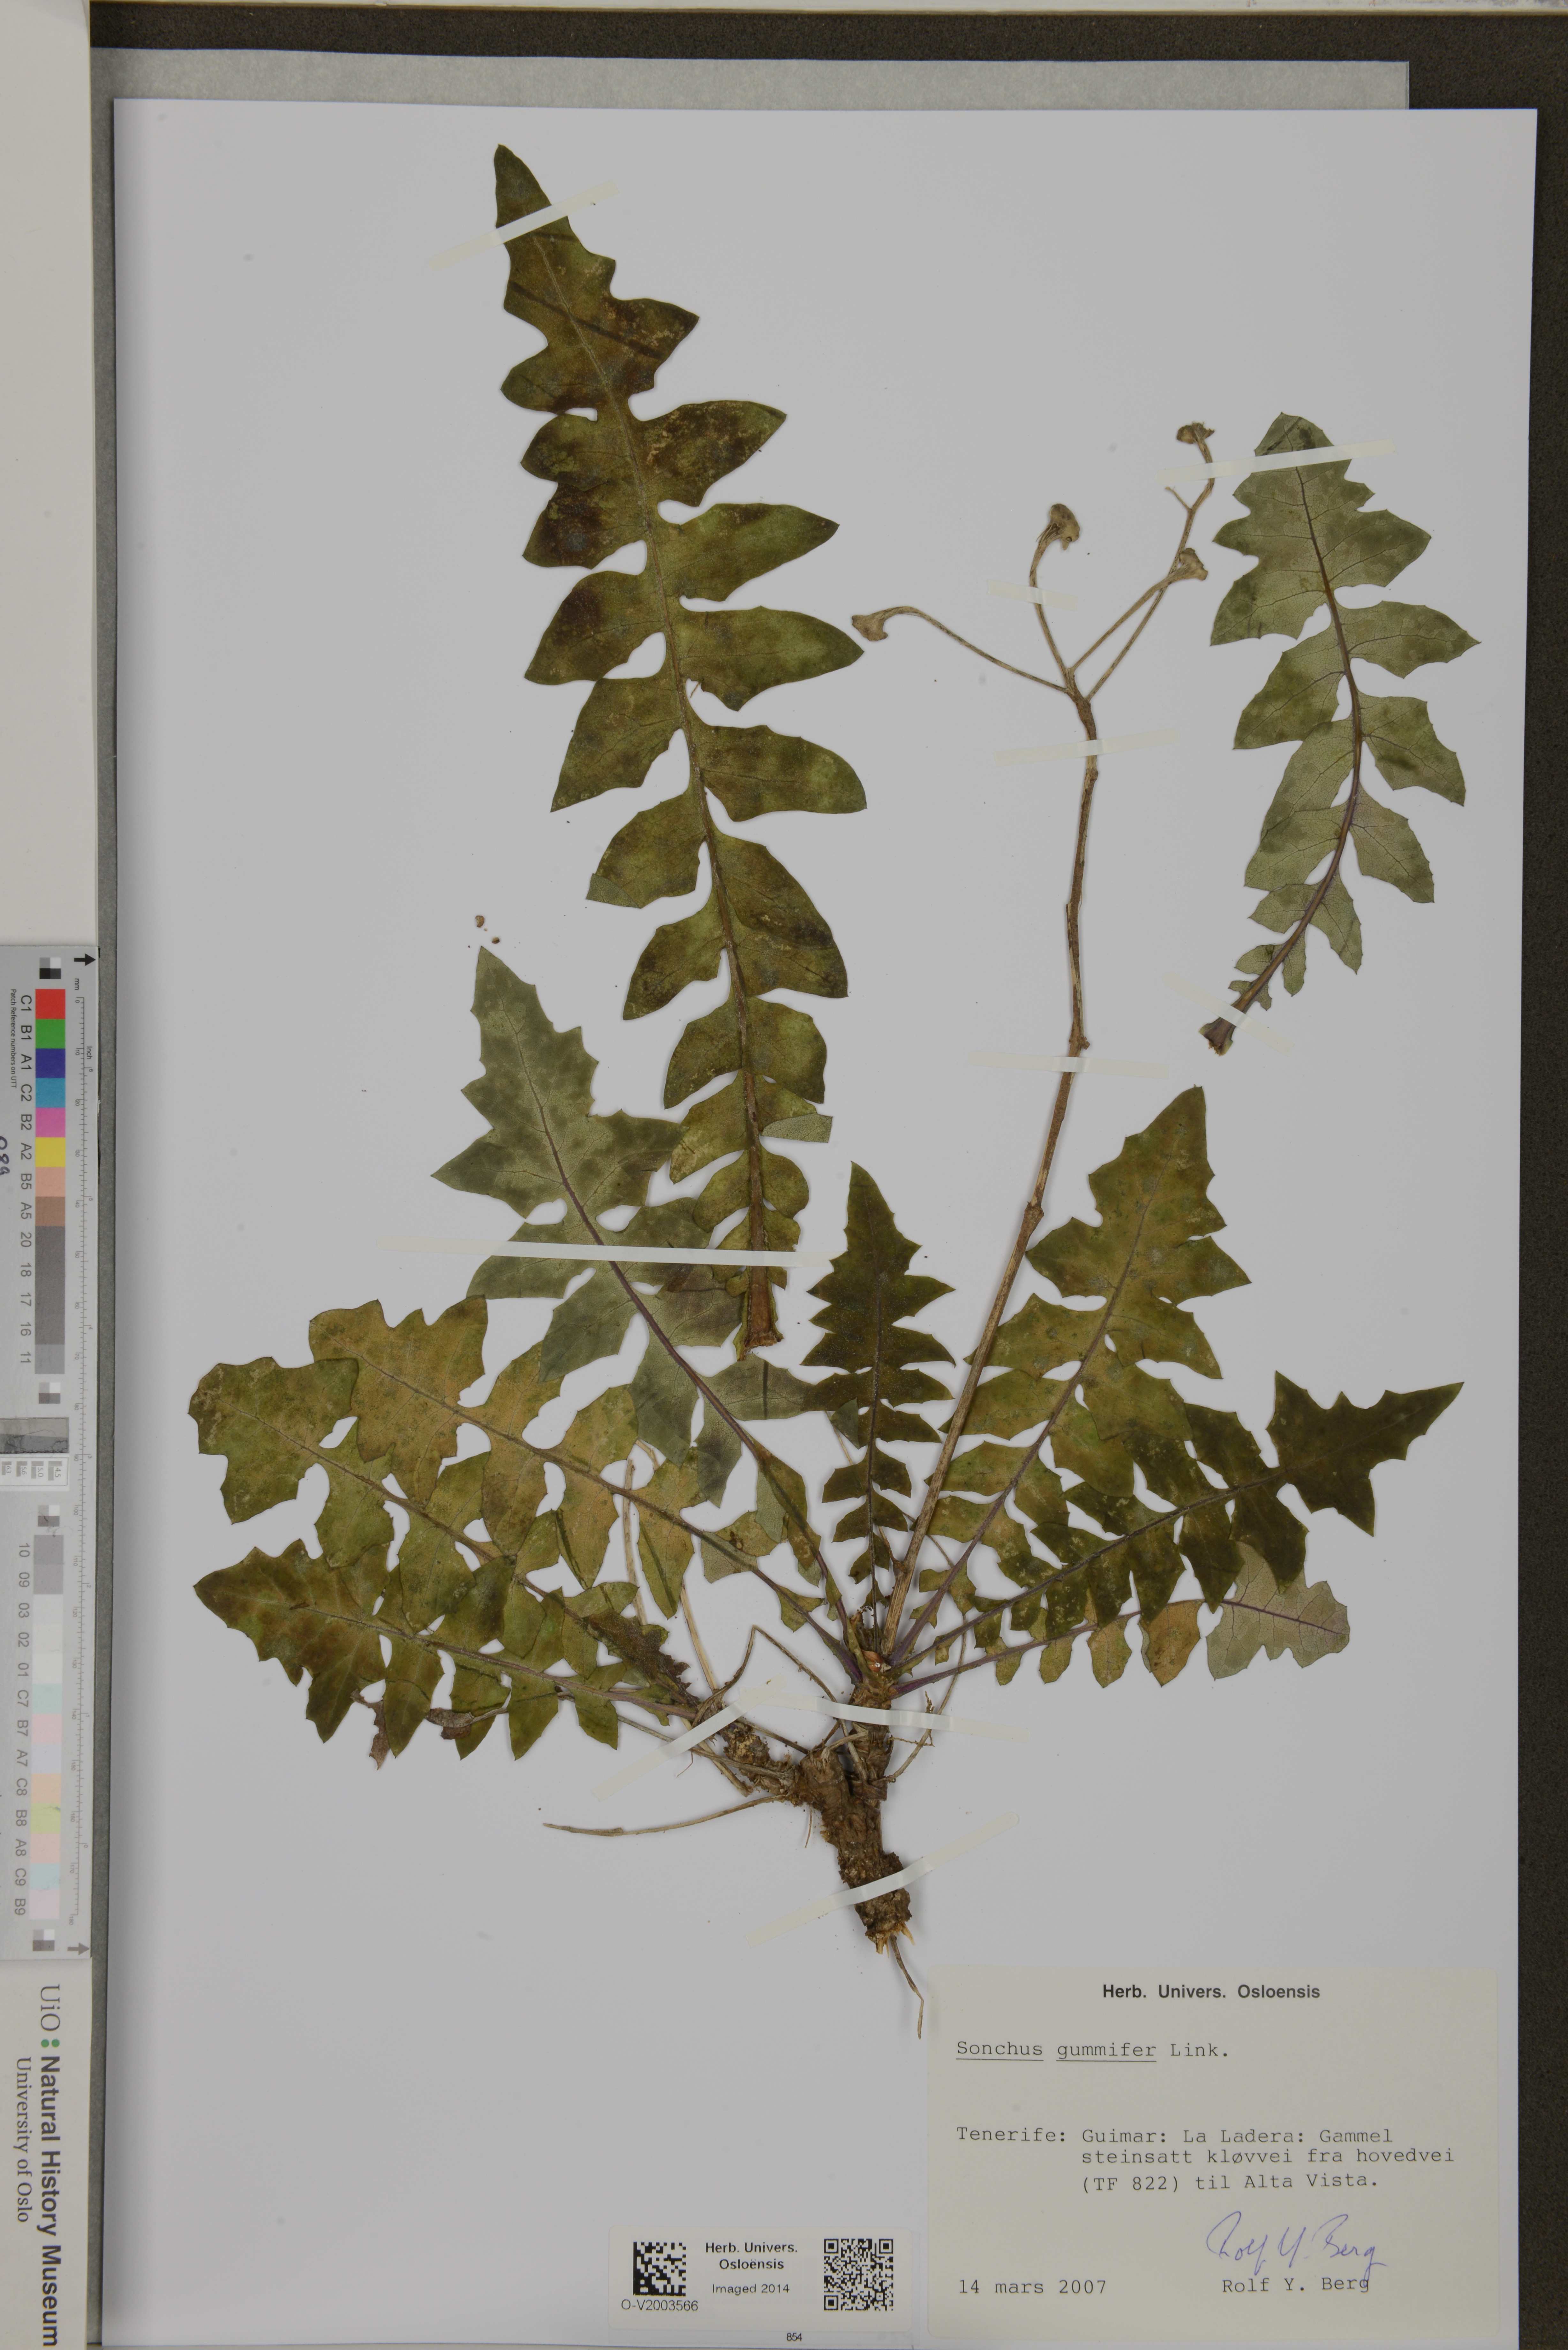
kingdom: Plantae
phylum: Tracheophyta
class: Magnoliopsida
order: Asterales
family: Asteraceae
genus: Sonchus
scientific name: Sonchus gummifer
